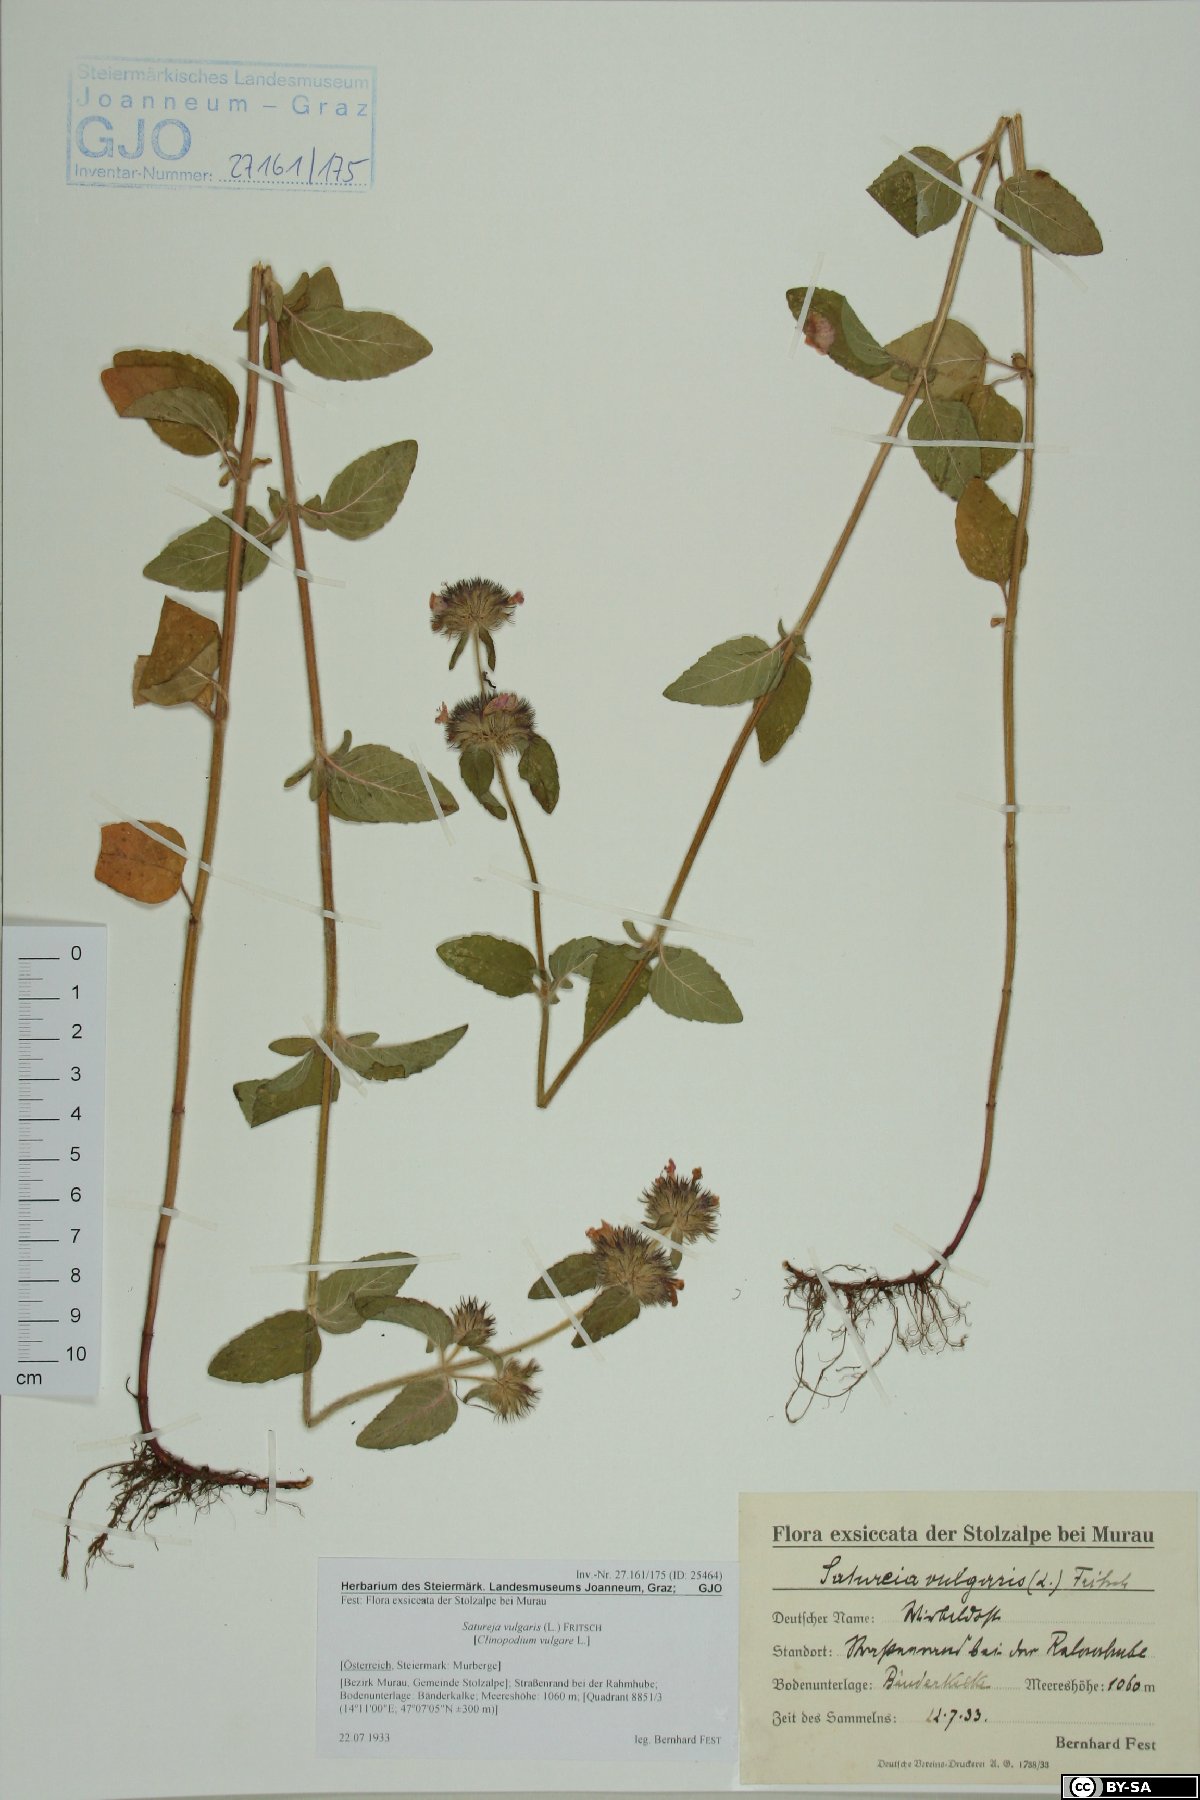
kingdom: Plantae
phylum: Tracheophyta
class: Magnoliopsida
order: Lamiales
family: Lamiaceae
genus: Clinopodium
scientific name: Clinopodium vulgare
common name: Wild basil
